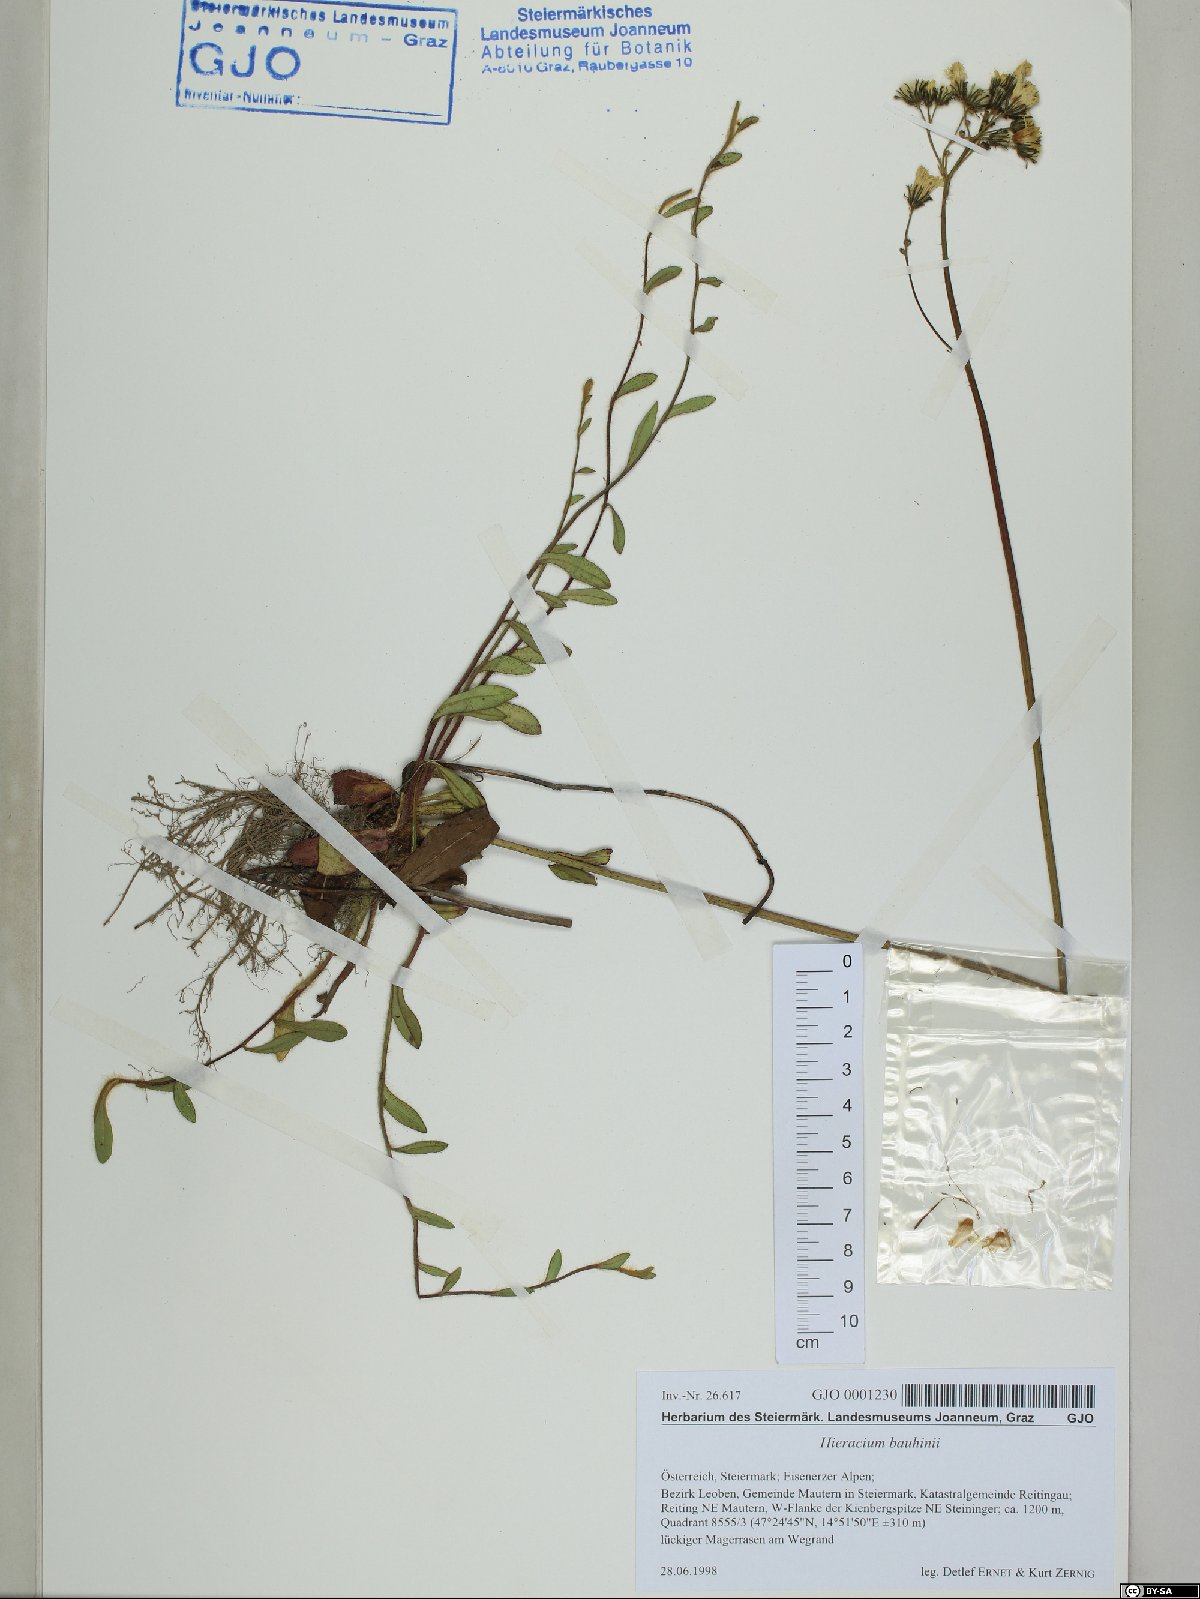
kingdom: Plantae
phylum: Tracheophyta
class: Magnoliopsida
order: Asterales
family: Asteraceae
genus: Pilosella
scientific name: Pilosella bauhini
